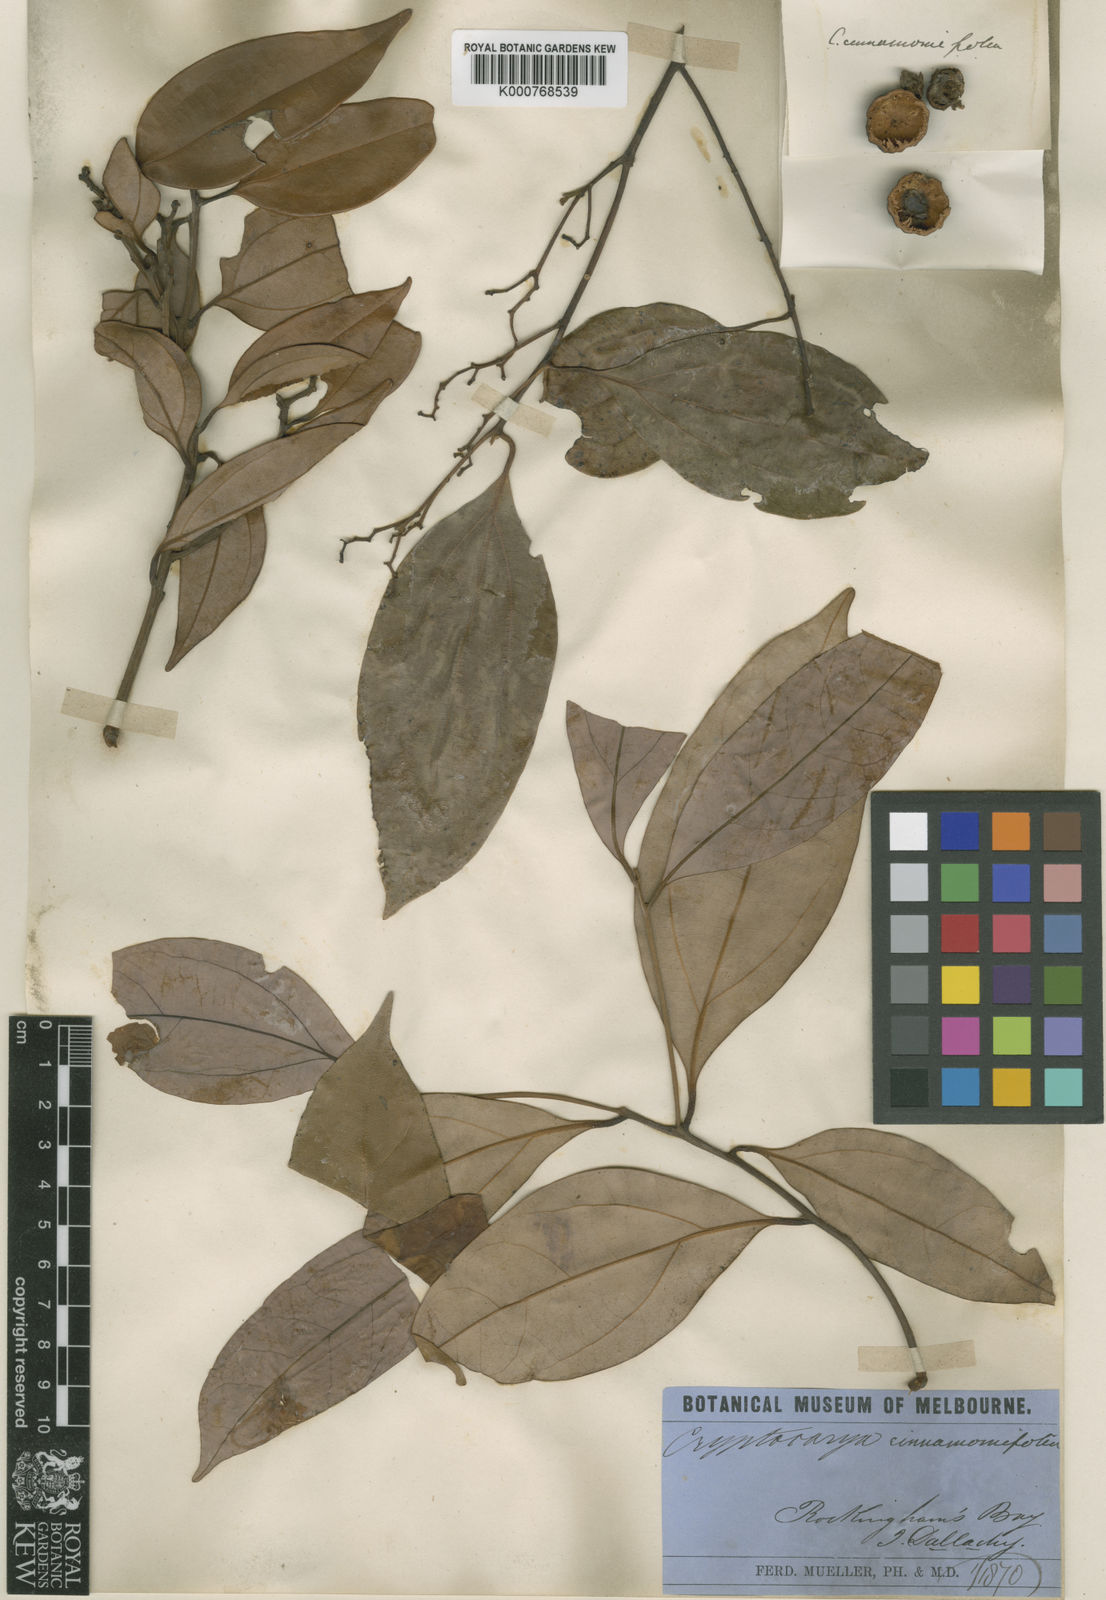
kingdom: Plantae
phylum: Tracheophyta
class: Magnoliopsida
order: Laurales
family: Lauraceae
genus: Cryptocarya
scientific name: Cryptocarya densiflora
